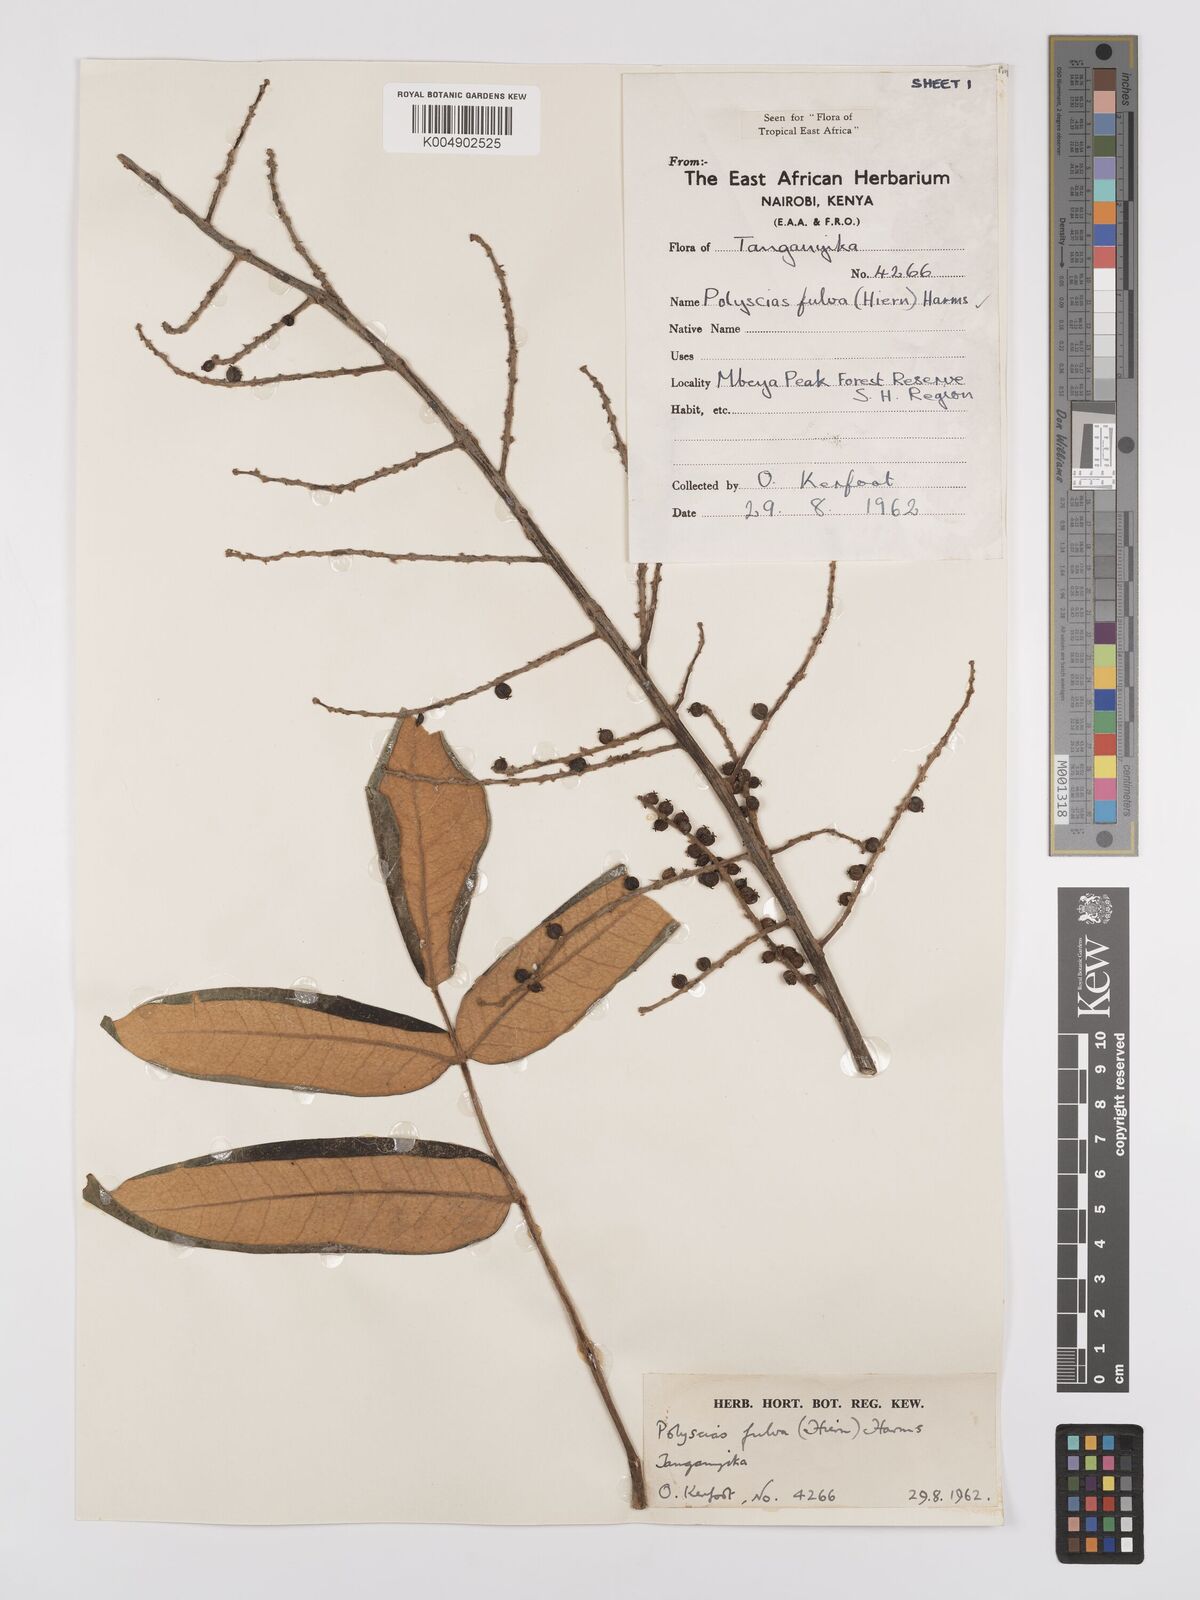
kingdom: Plantae
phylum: Tracheophyta
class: Magnoliopsida
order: Apiales
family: Araliaceae
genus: Polyscias
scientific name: Polyscias fulva
